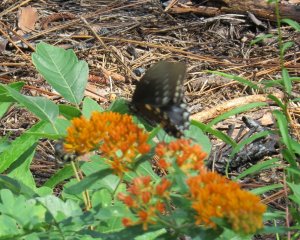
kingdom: Animalia
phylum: Arthropoda
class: Insecta
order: Lepidoptera
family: Papilionidae
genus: Battus
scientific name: Battus philenor
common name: Pipevine Swallowtail
